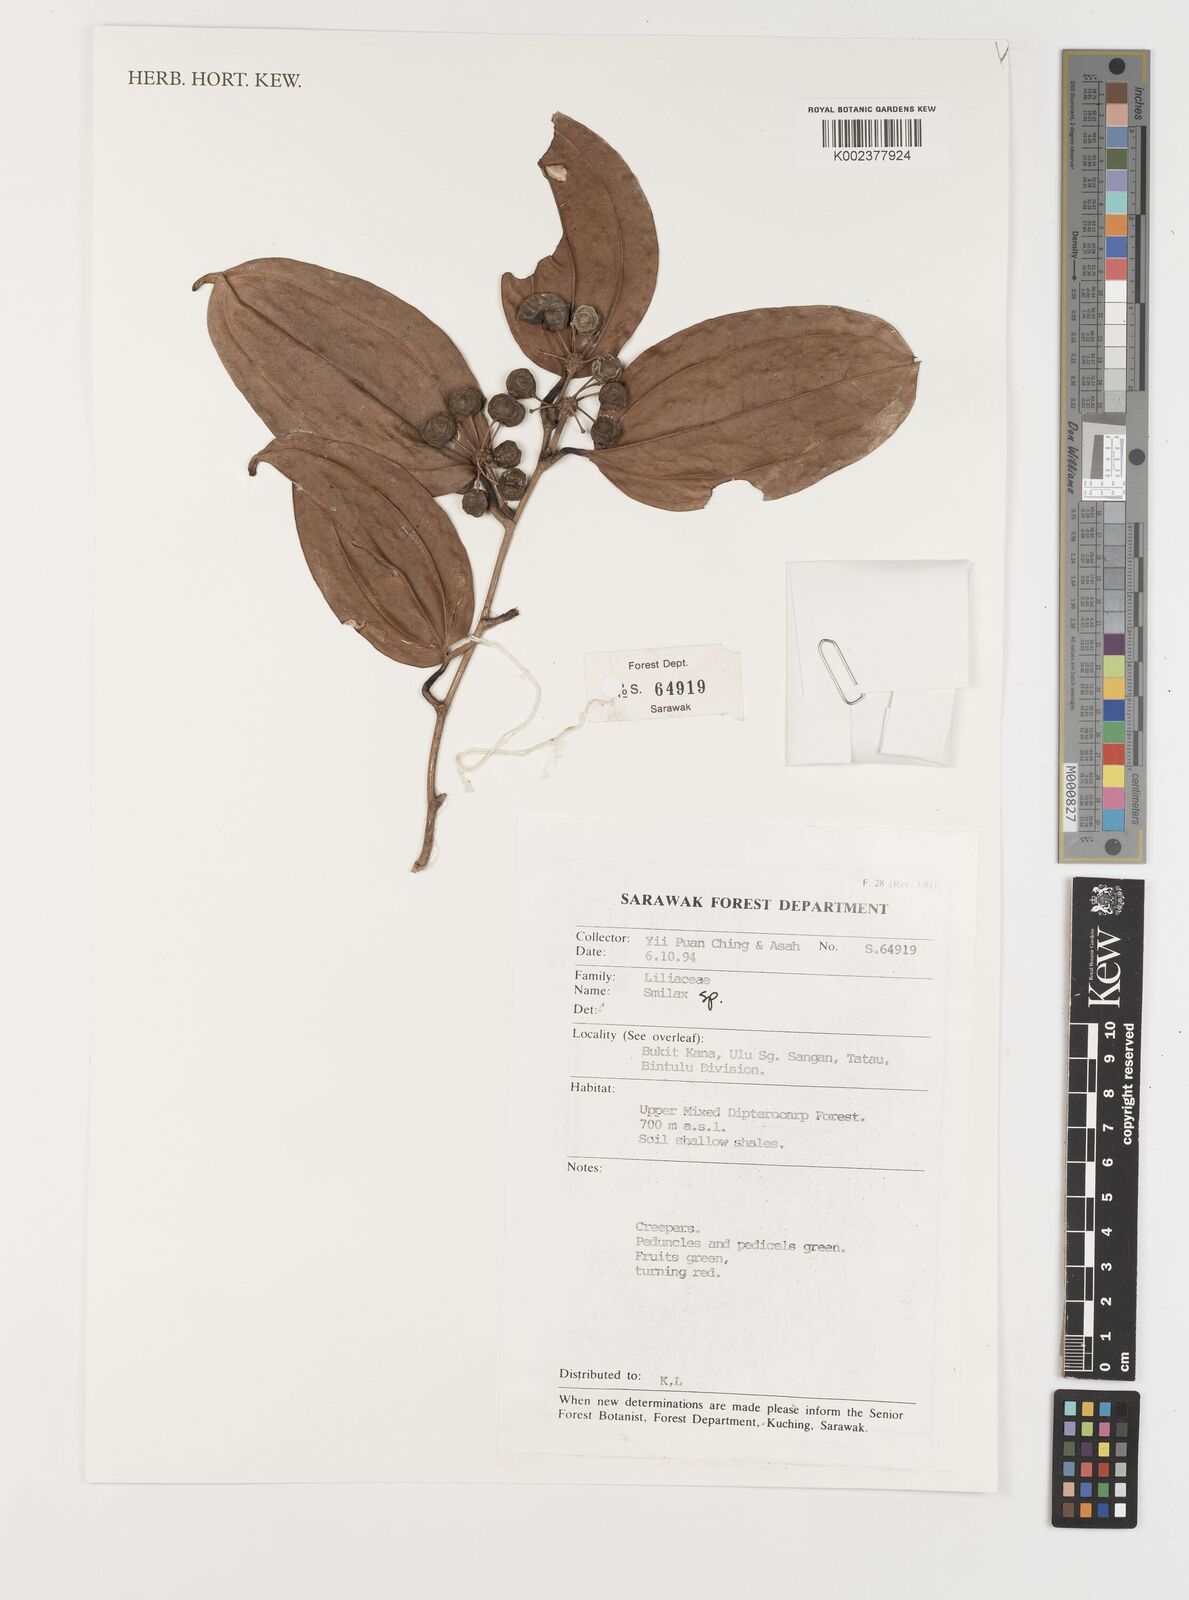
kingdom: Plantae
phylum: Tracheophyta
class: Liliopsida
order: Liliales
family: Smilacaceae
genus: Smilax
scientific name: Smilax
